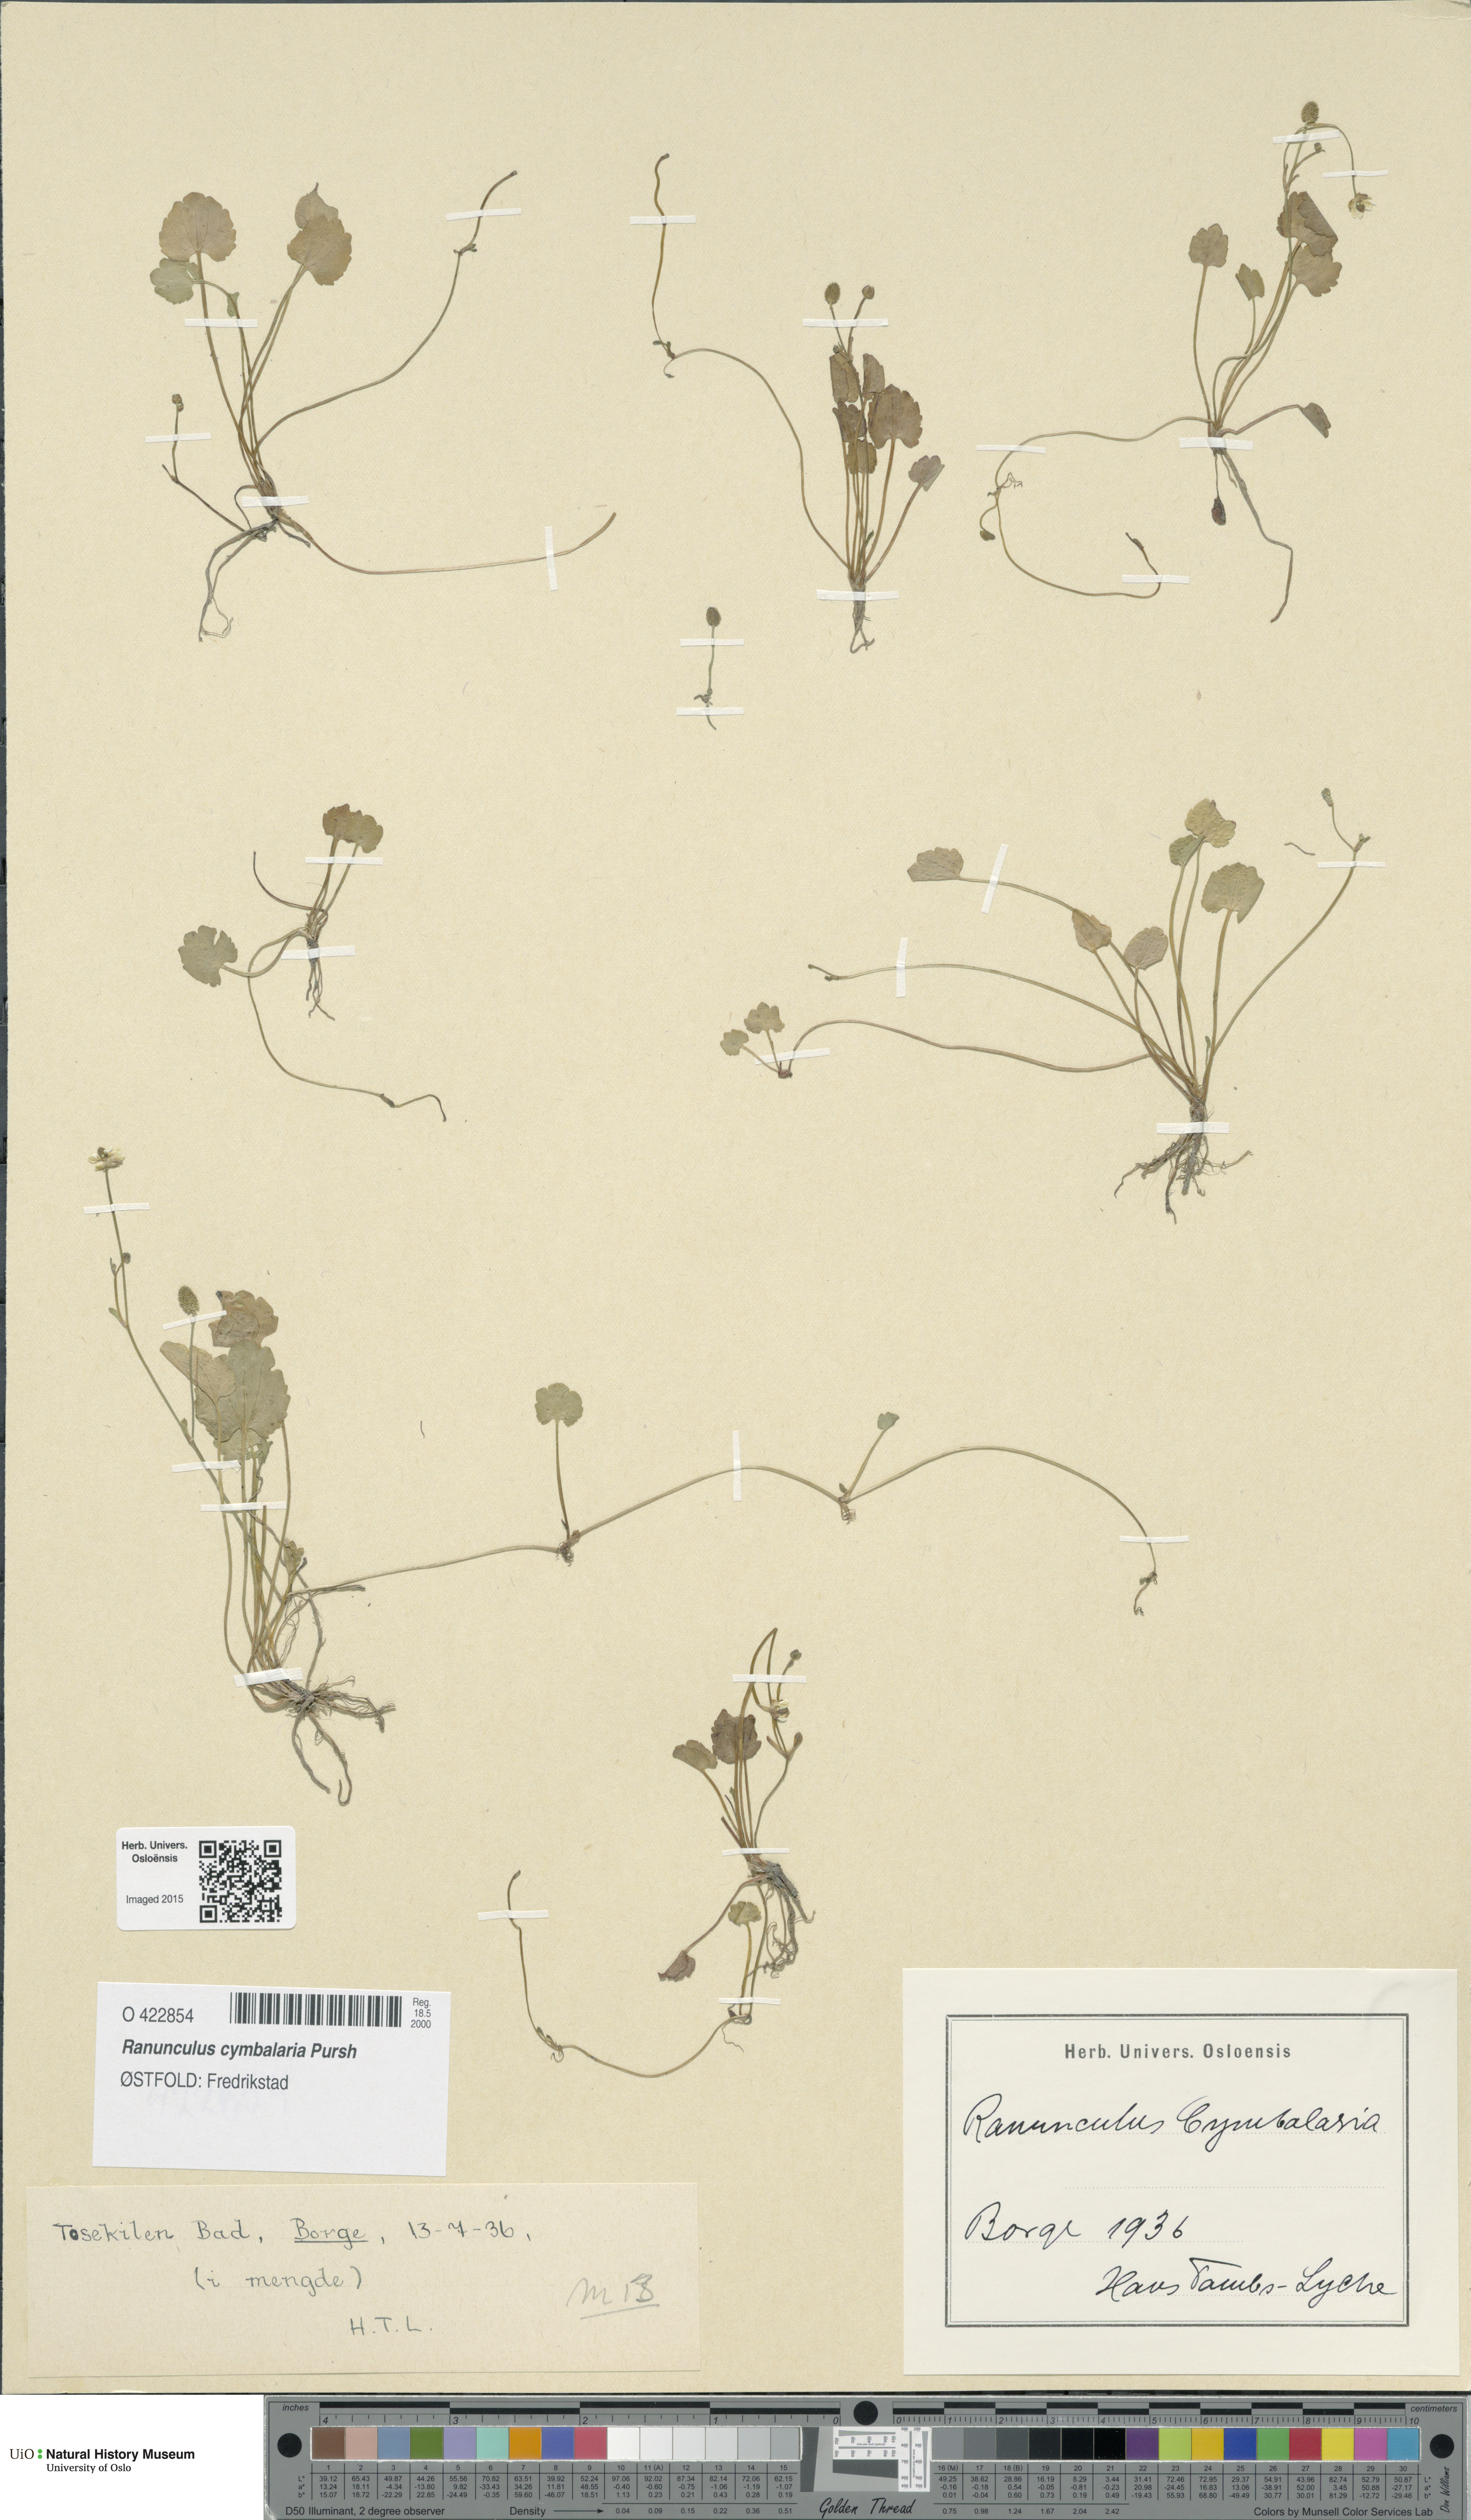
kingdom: Plantae
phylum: Tracheophyta
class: Magnoliopsida
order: Ranunculales
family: Ranunculaceae
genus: Halerpestes
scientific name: Halerpestes cymbalaria
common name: Seaside crowfoot
